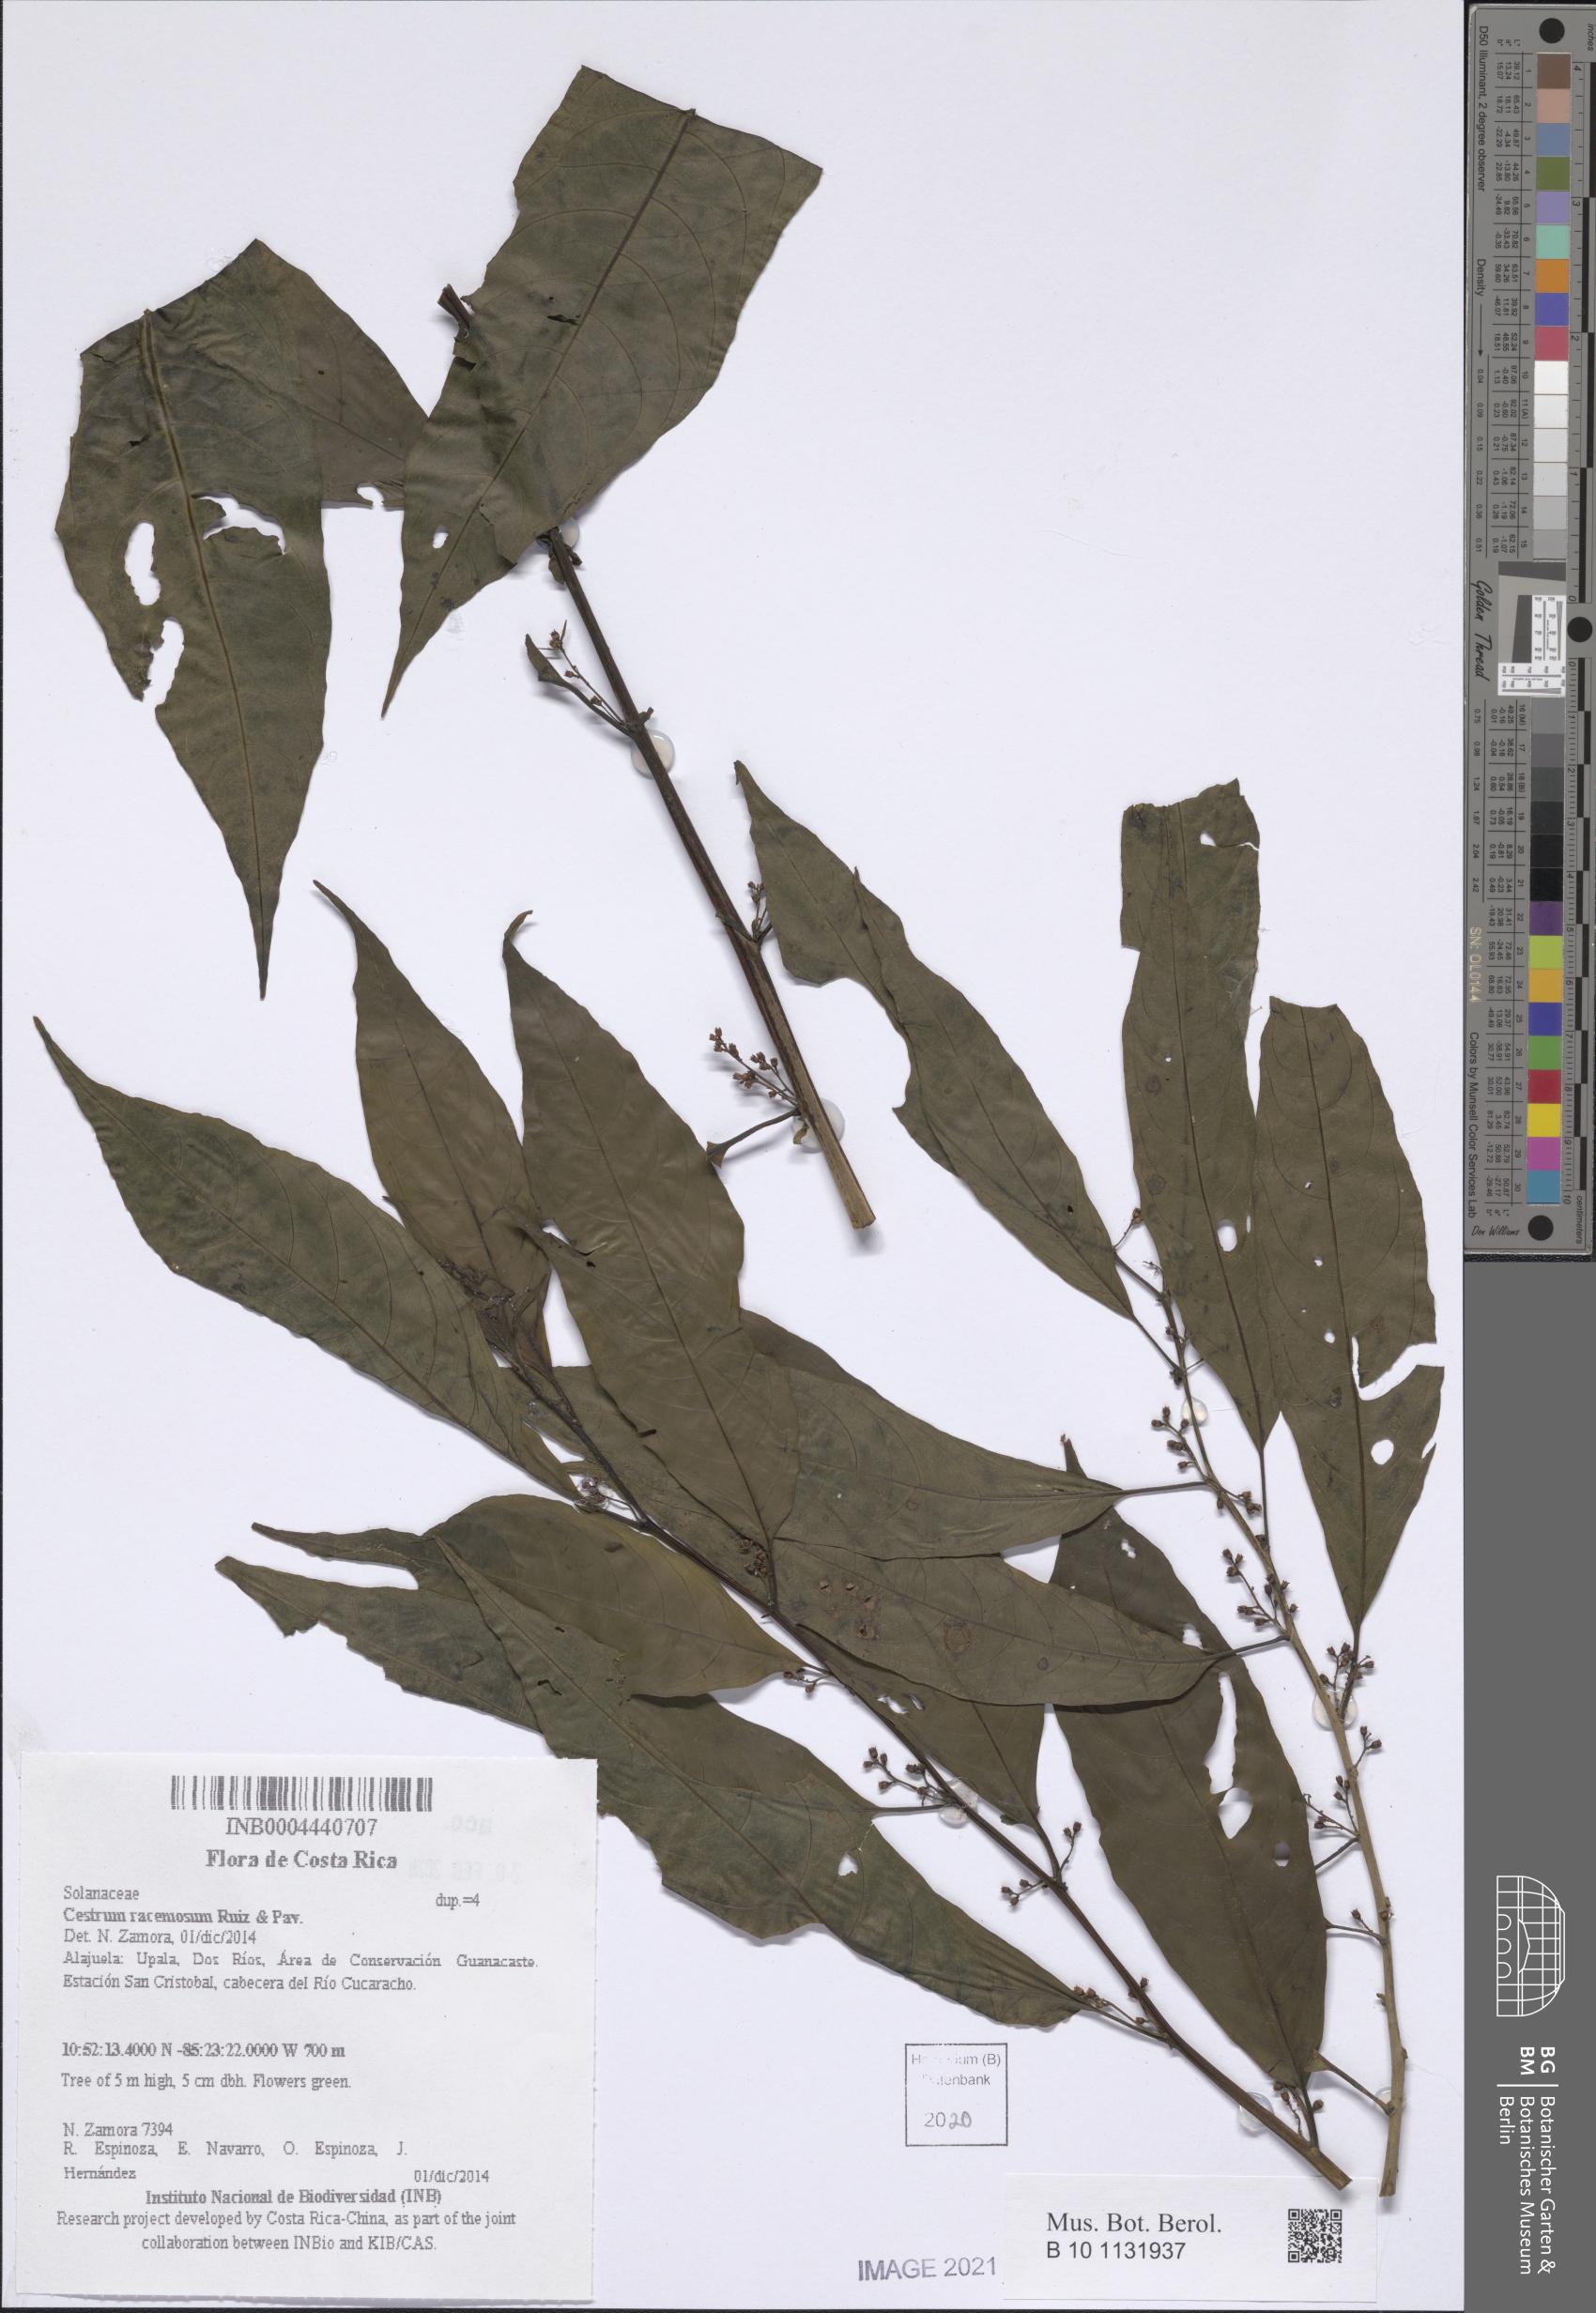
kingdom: Plantae
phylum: Tracheophyta
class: Magnoliopsida
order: Solanales
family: Solanaceae
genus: Cestrum
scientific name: Cestrum racemosum
